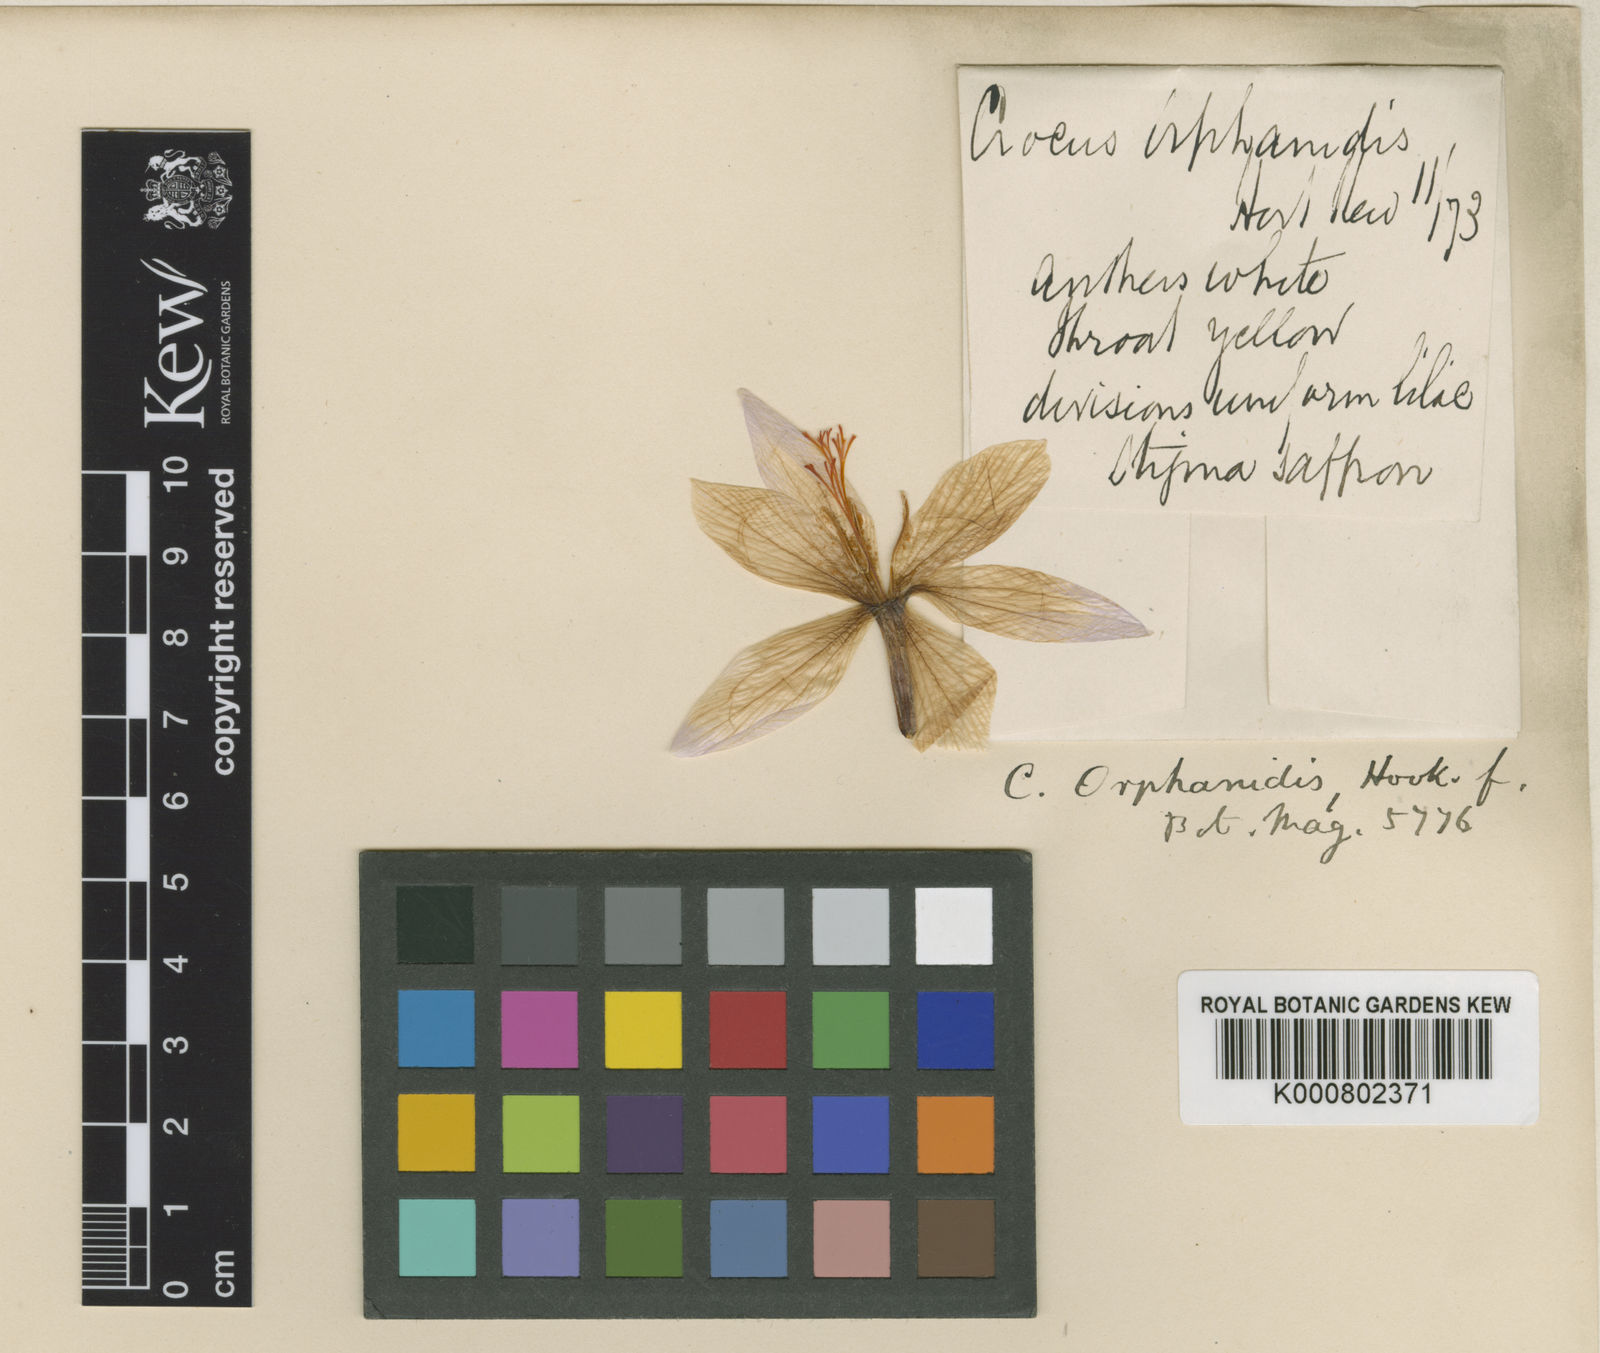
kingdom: Plantae
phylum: Tracheophyta
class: Liliopsida
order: Asparagales
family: Iridaceae
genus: Crocus
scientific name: Crocus tournefortii
